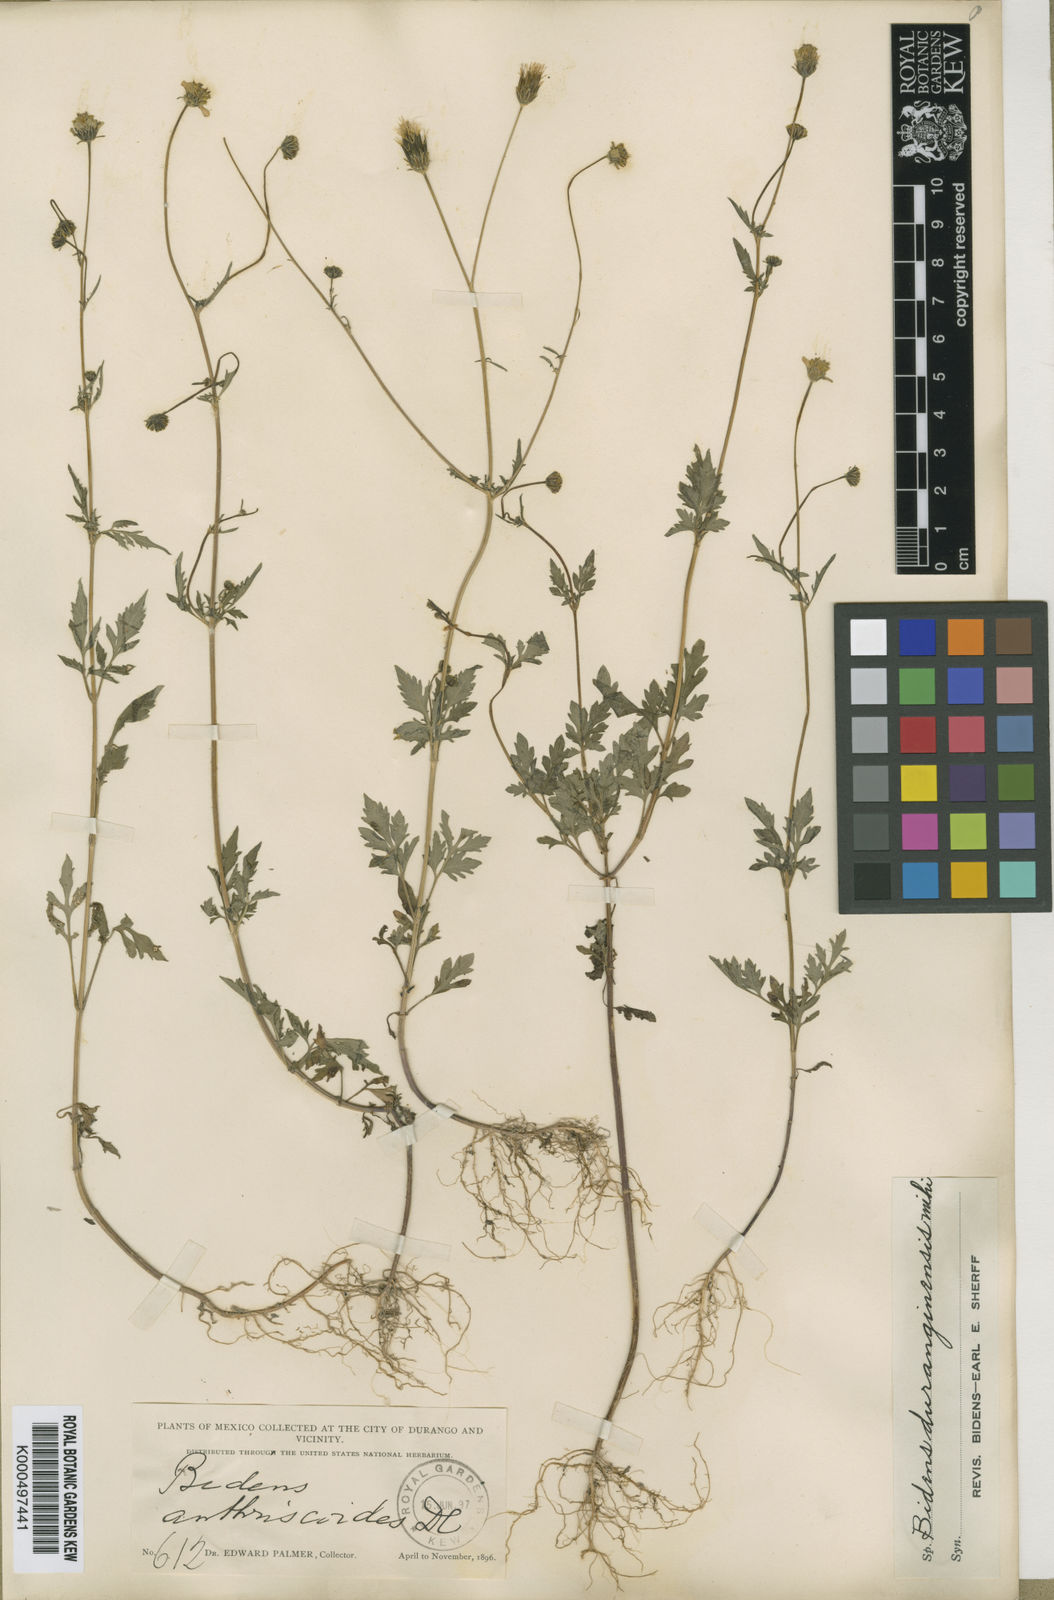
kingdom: Plantae
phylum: Tracheophyta
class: Magnoliopsida
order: Asterales
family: Asteraceae
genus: Bidens
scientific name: Bidens bigelovii
